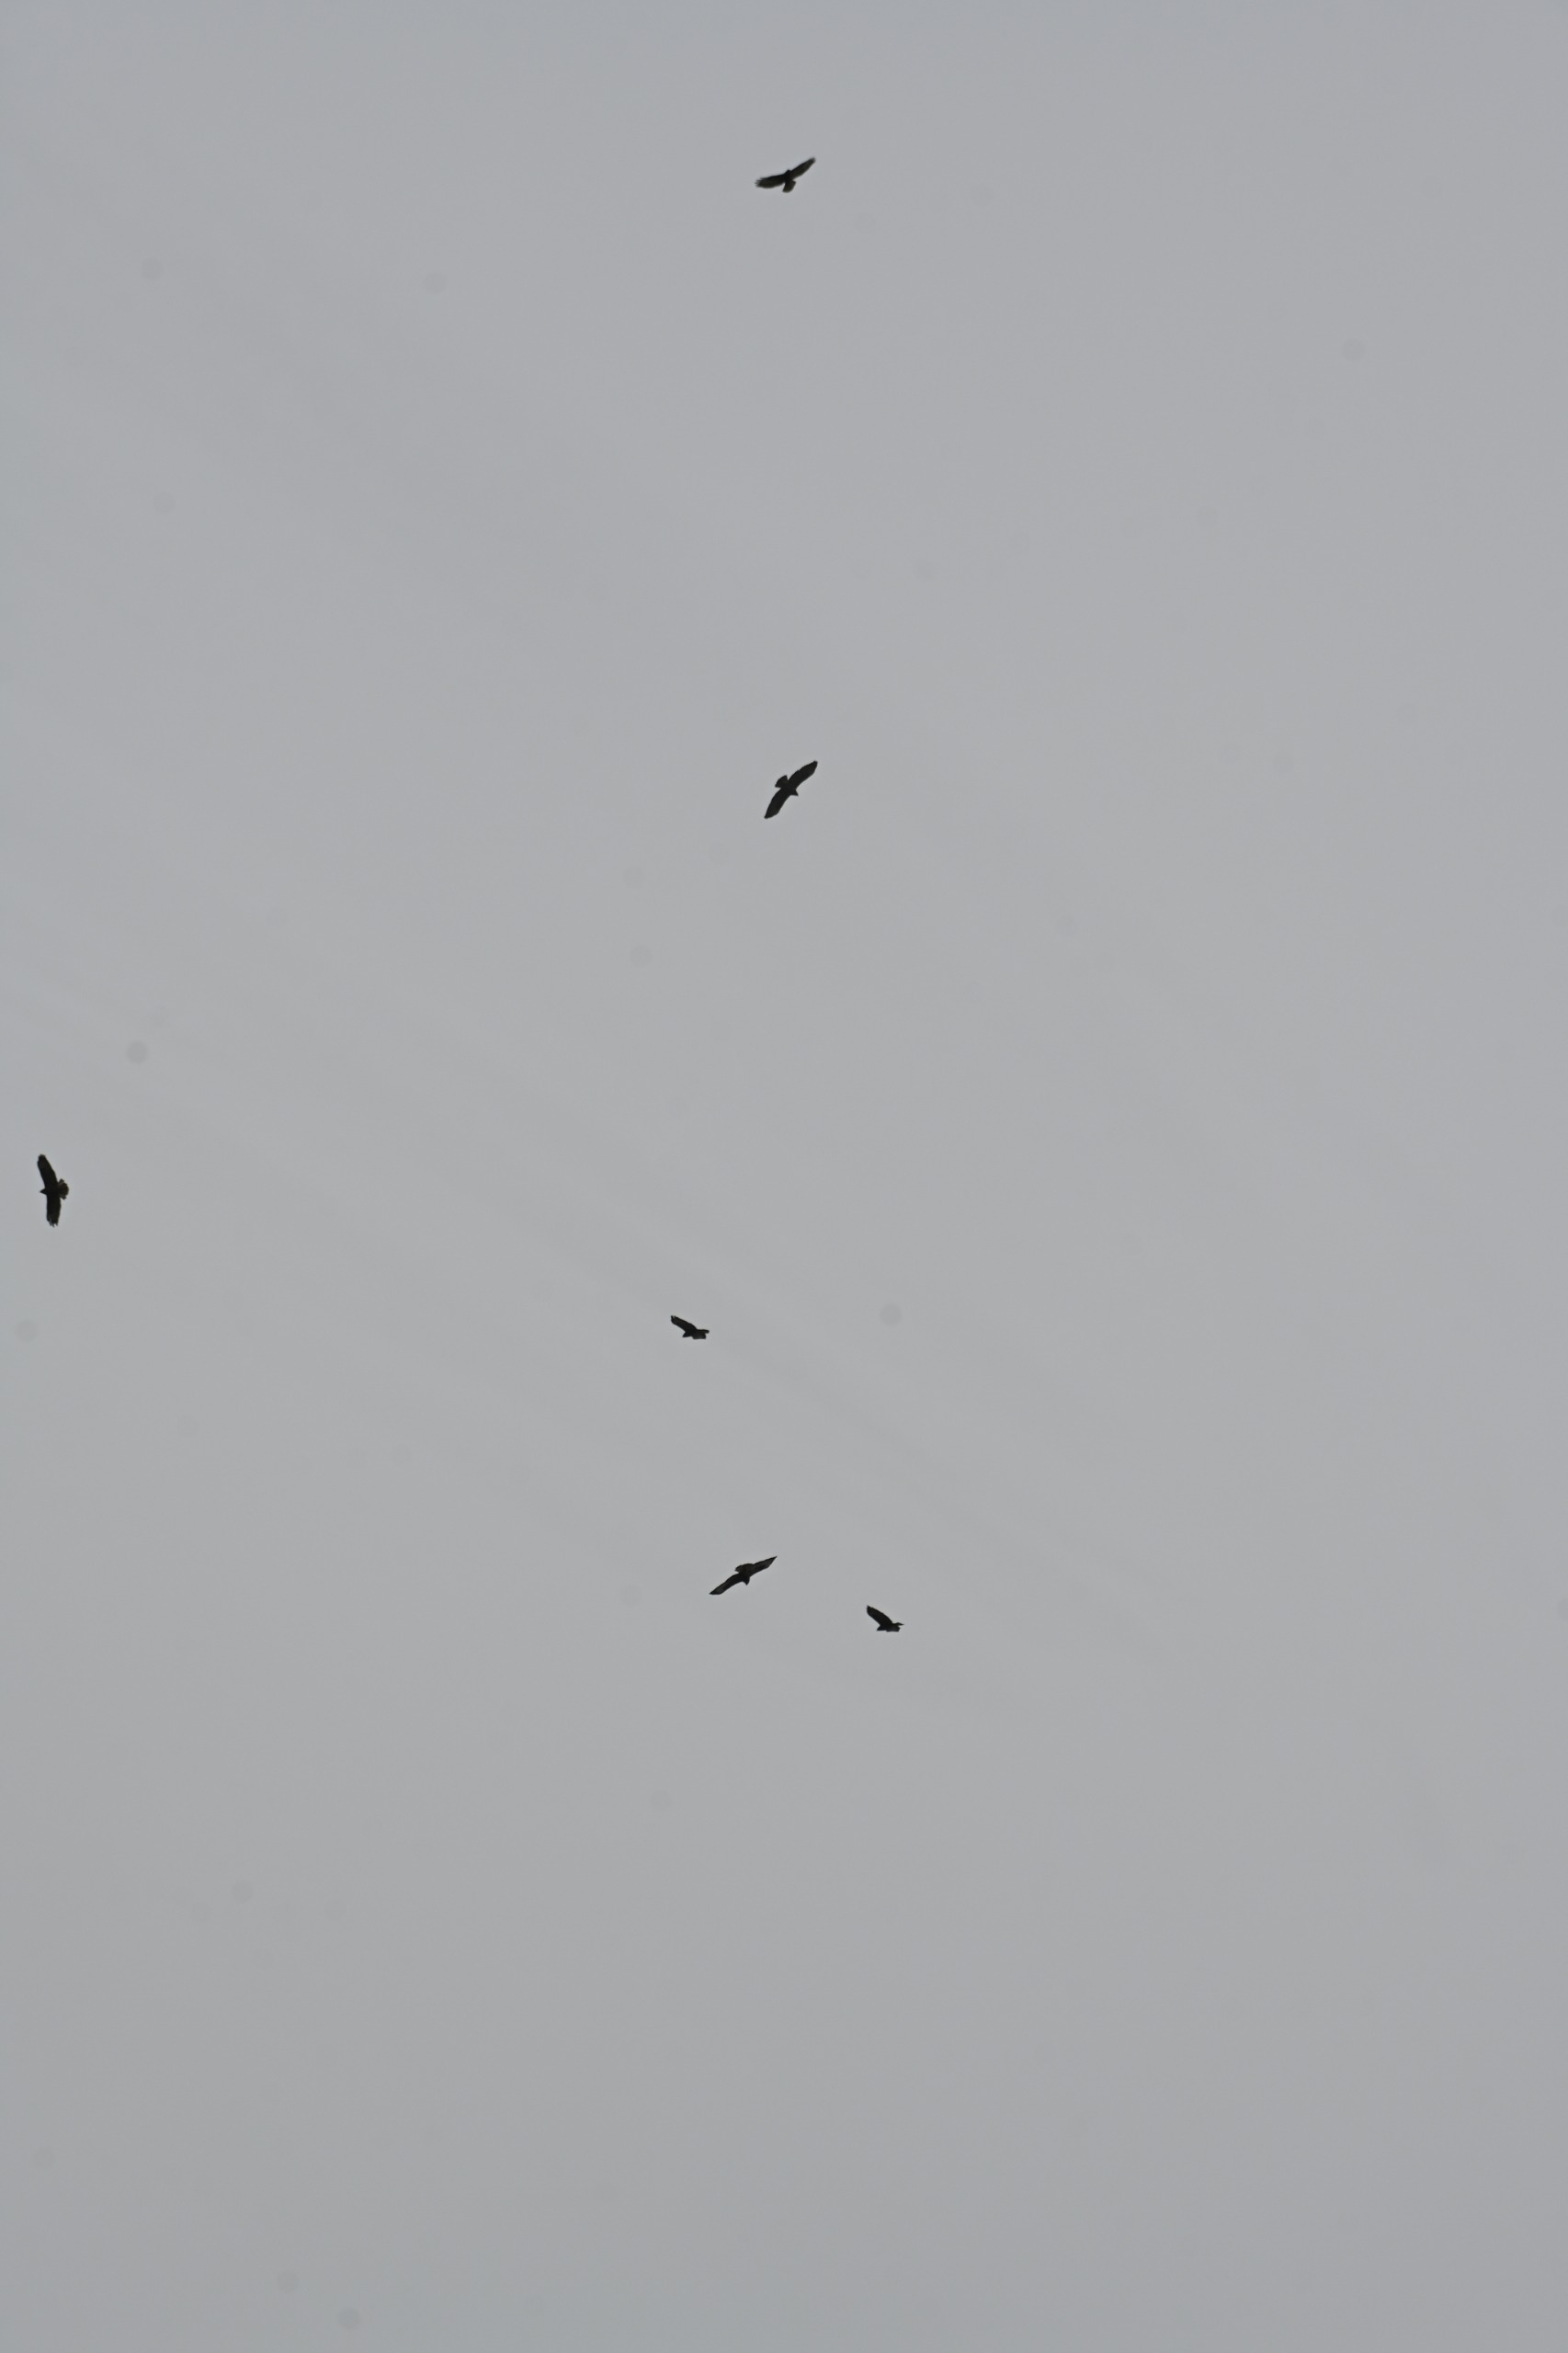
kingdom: Animalia
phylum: Chordata
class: Aves
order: Accipitriformes
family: Accipitridae
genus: Buteo
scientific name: Buteo buteo
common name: Musvåge
